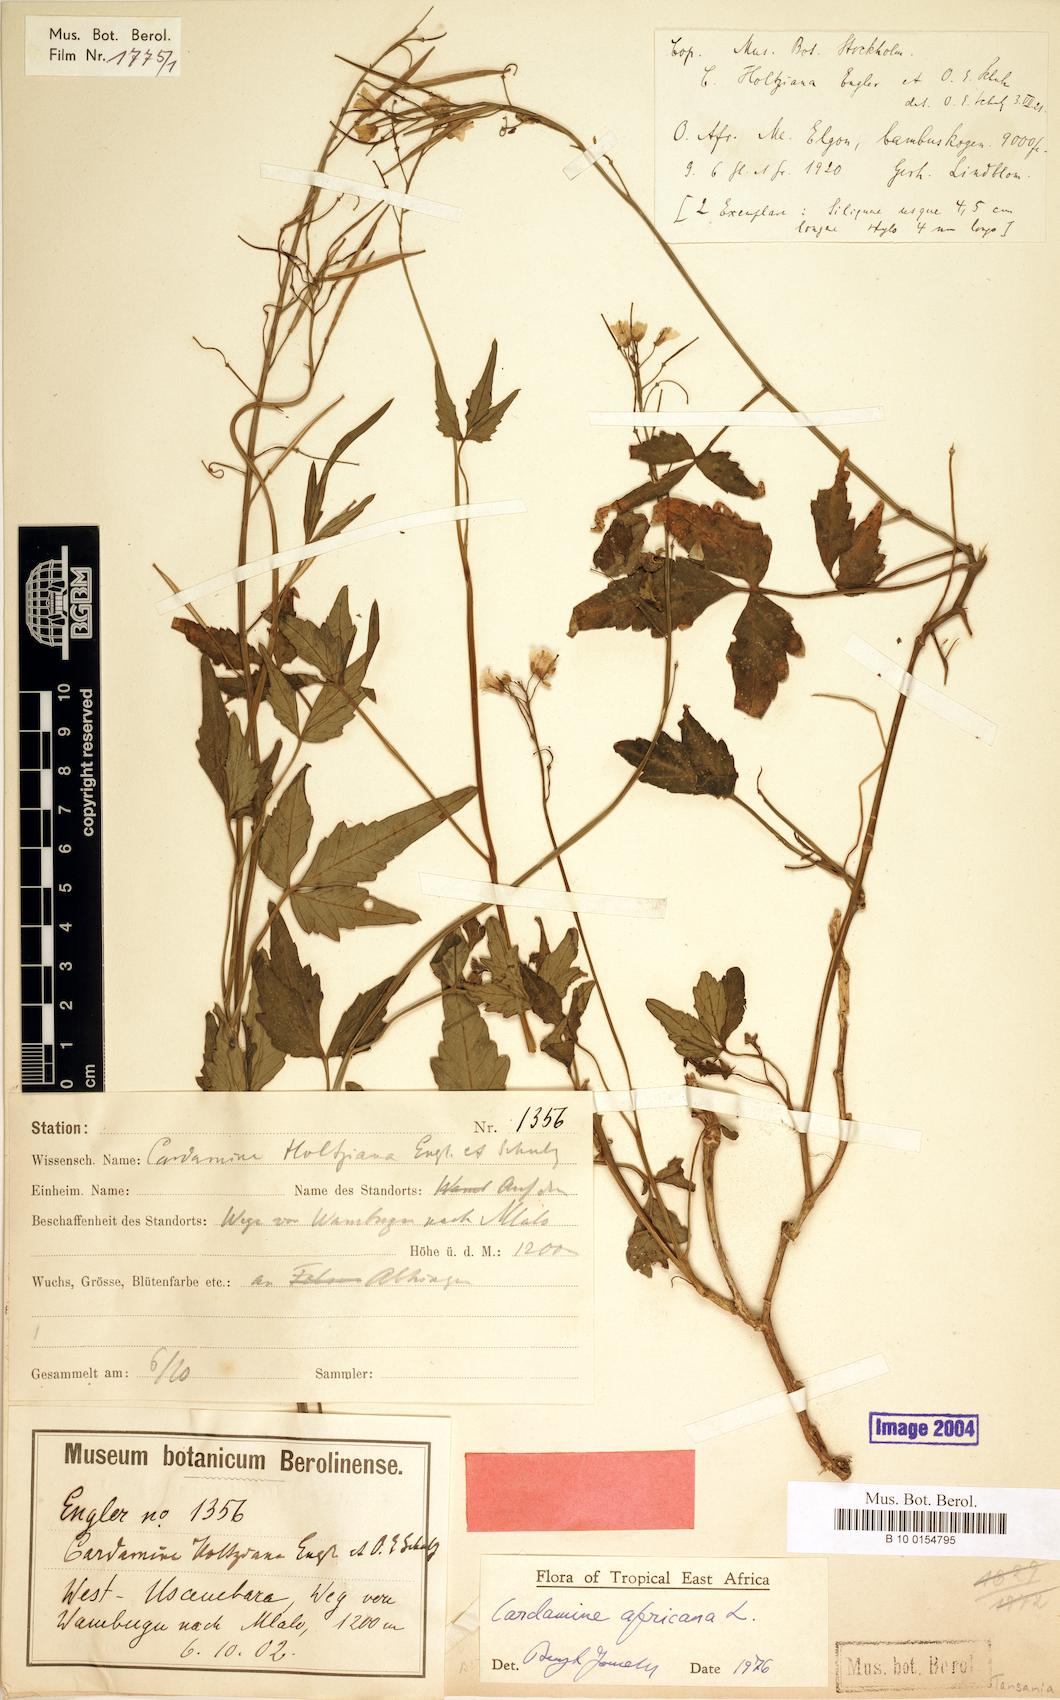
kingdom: Plantae
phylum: Tracheophyta
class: Magnoliopsida
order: Brassicales
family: Brassicaceae
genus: Cardamine
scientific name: Cardamine africana
